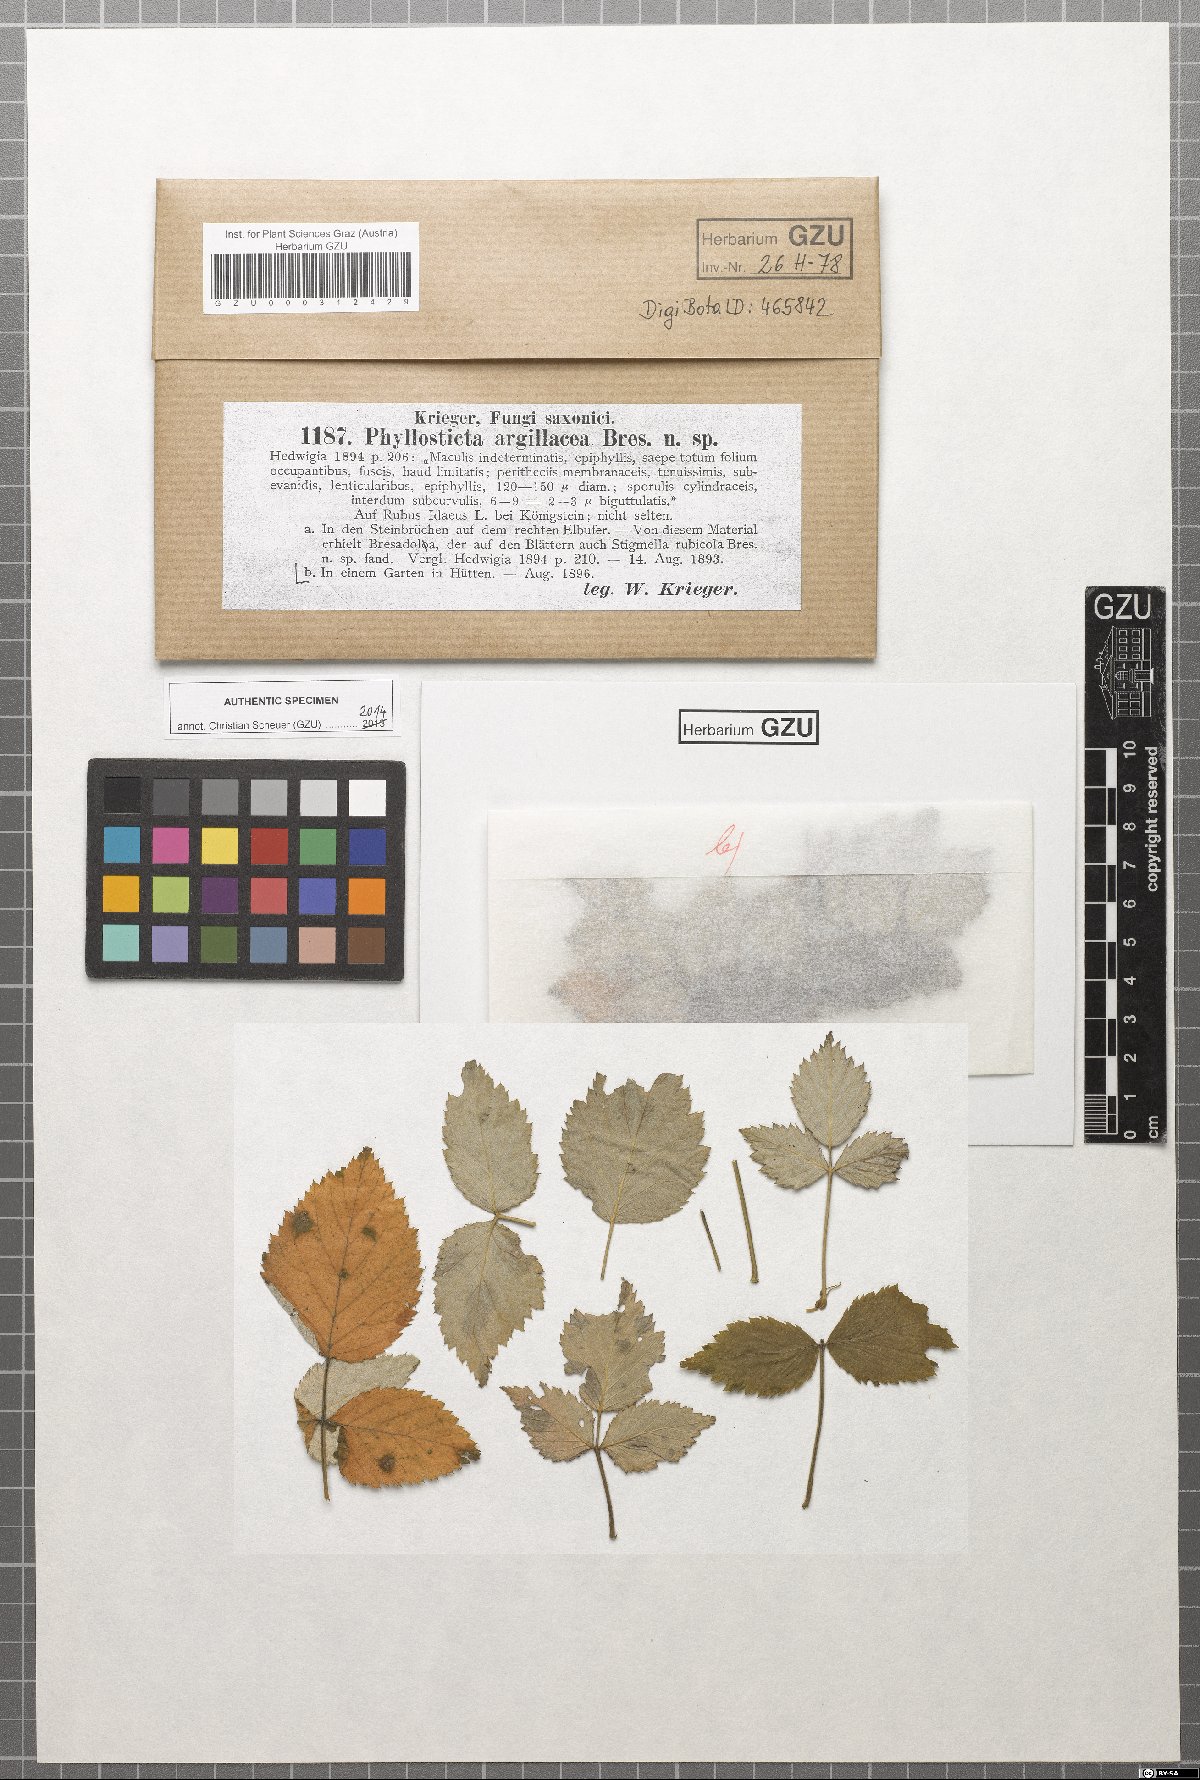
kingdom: Fungi
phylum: Ascomycota
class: Dothideomycetes
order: Pleosporales
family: Didymellaceae
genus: Xenodidymella
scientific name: Xenodidymella applanata
